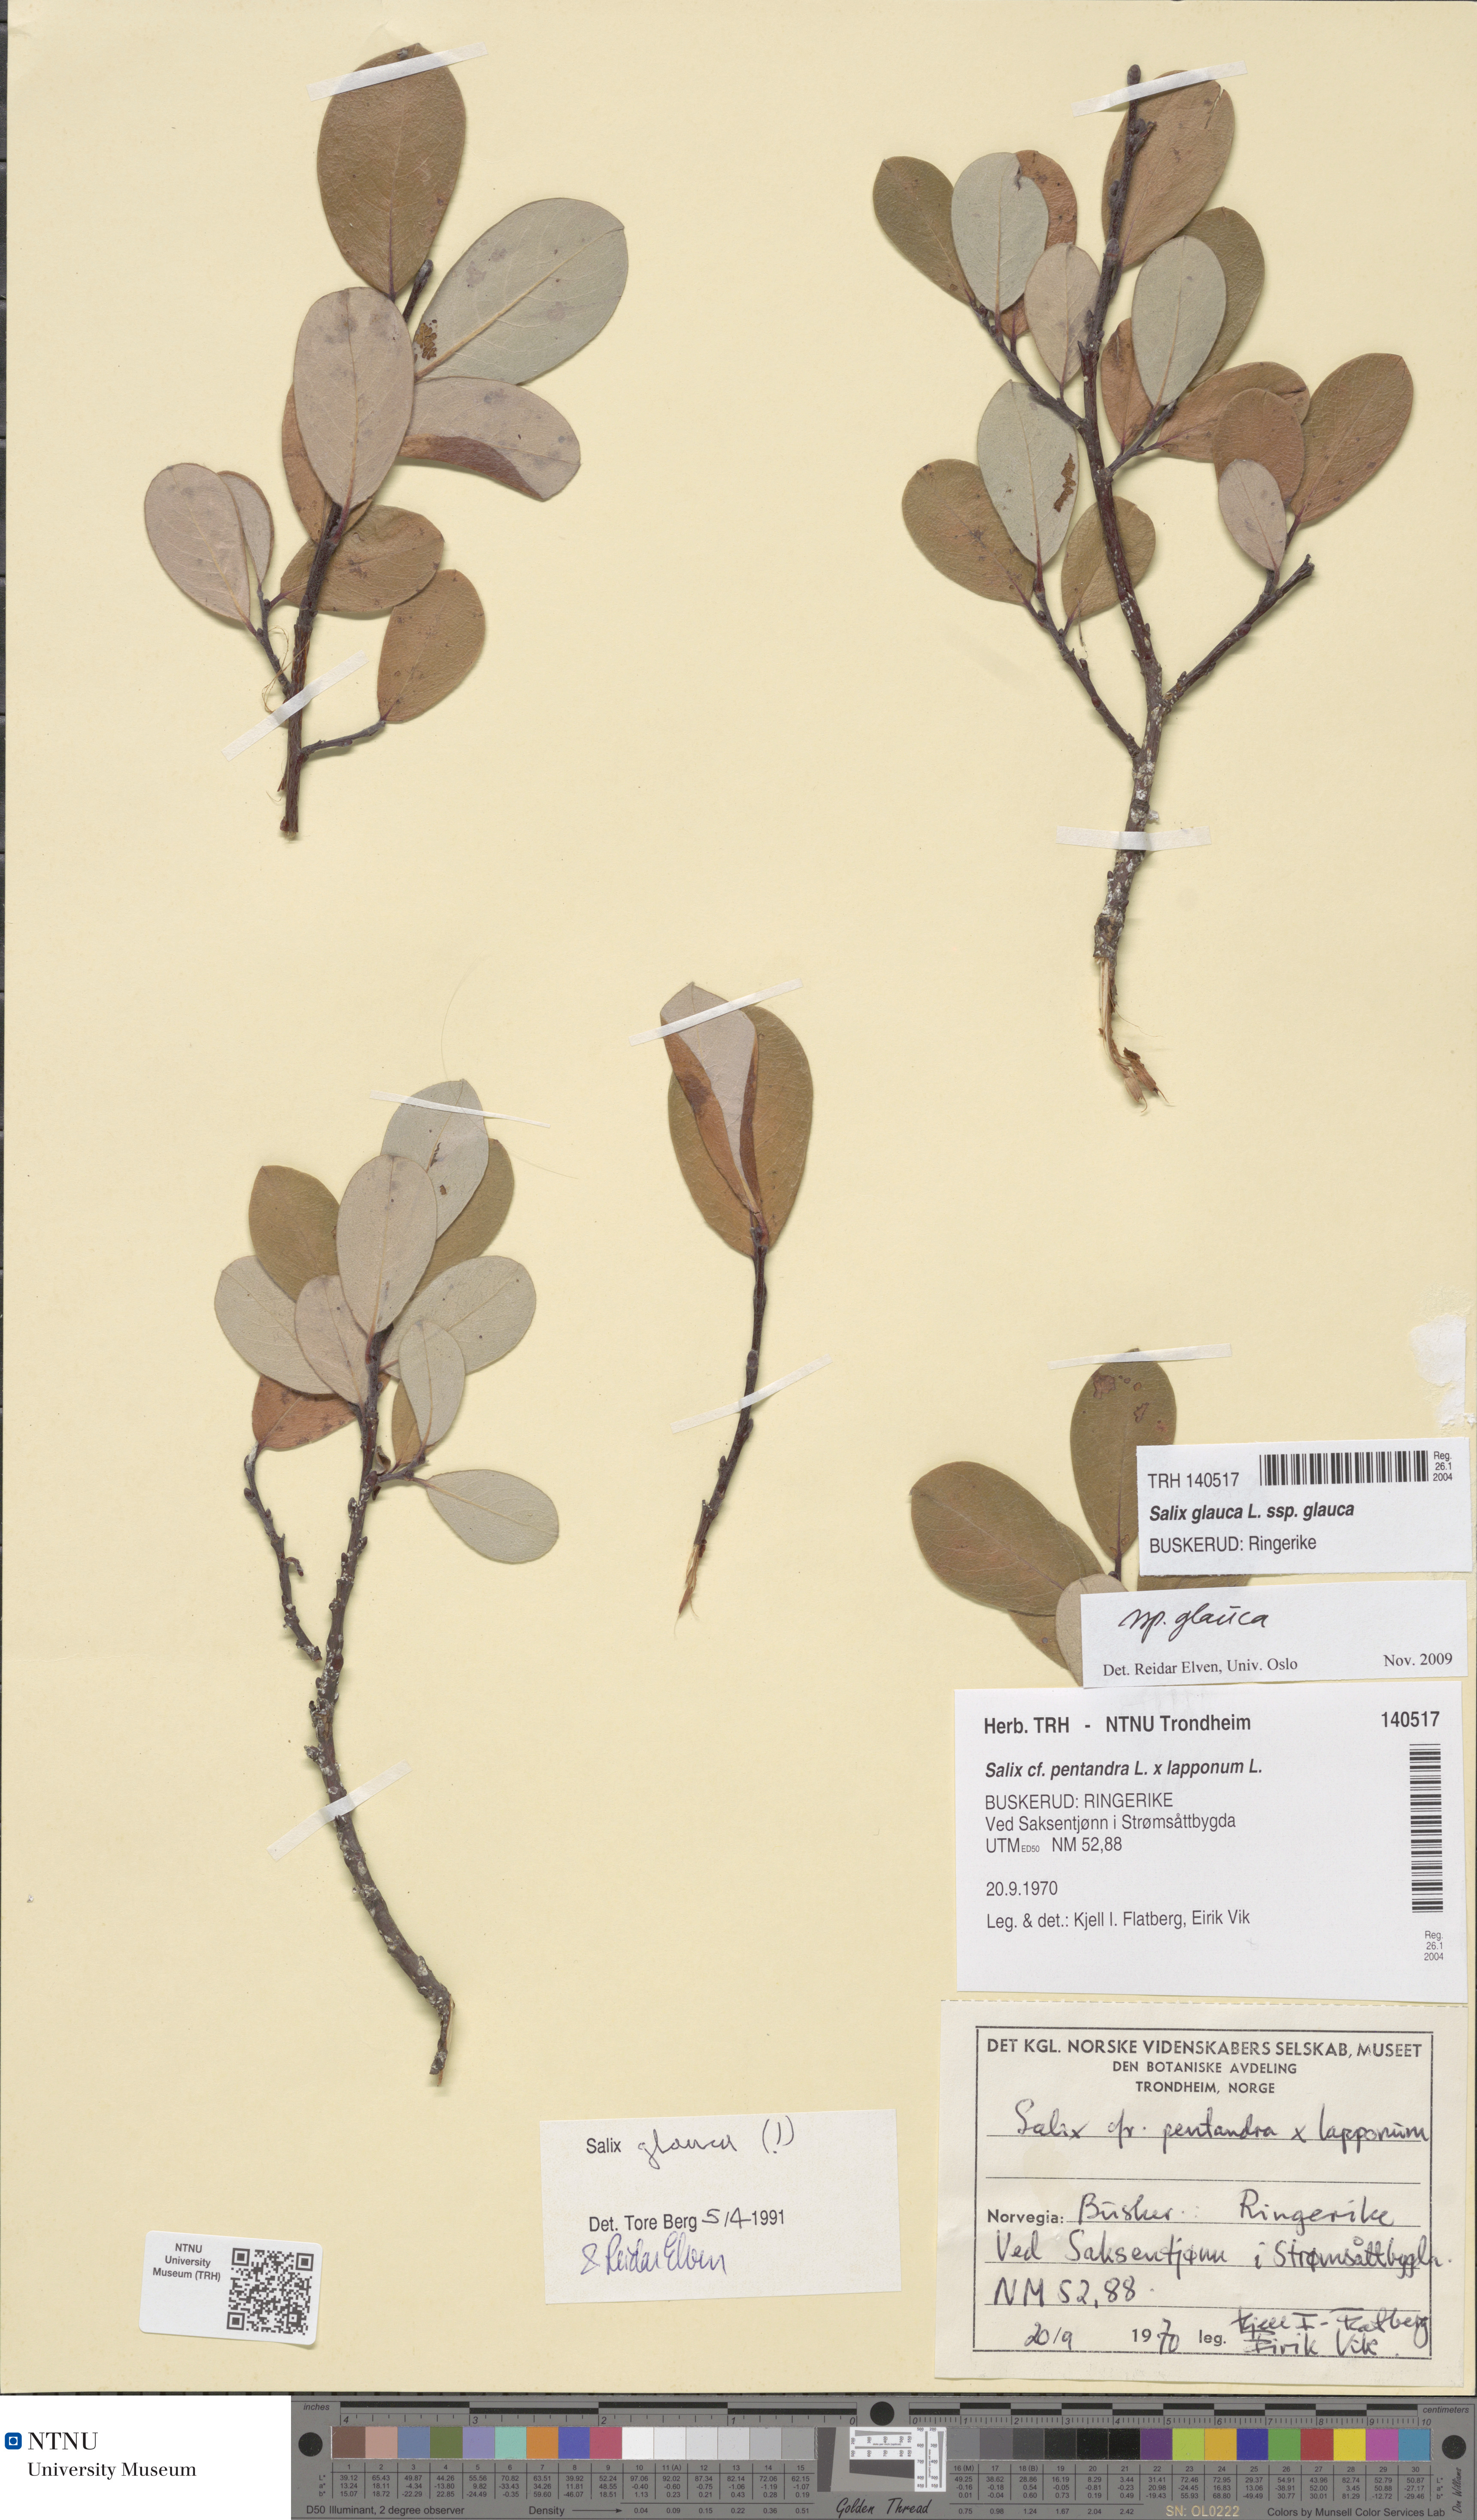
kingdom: Plantae
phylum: Tracheophyta
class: Magnoliopsida
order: Malpighiales
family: Salicaceae
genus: Salix
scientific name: Salix glauca
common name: Glaucous willow
